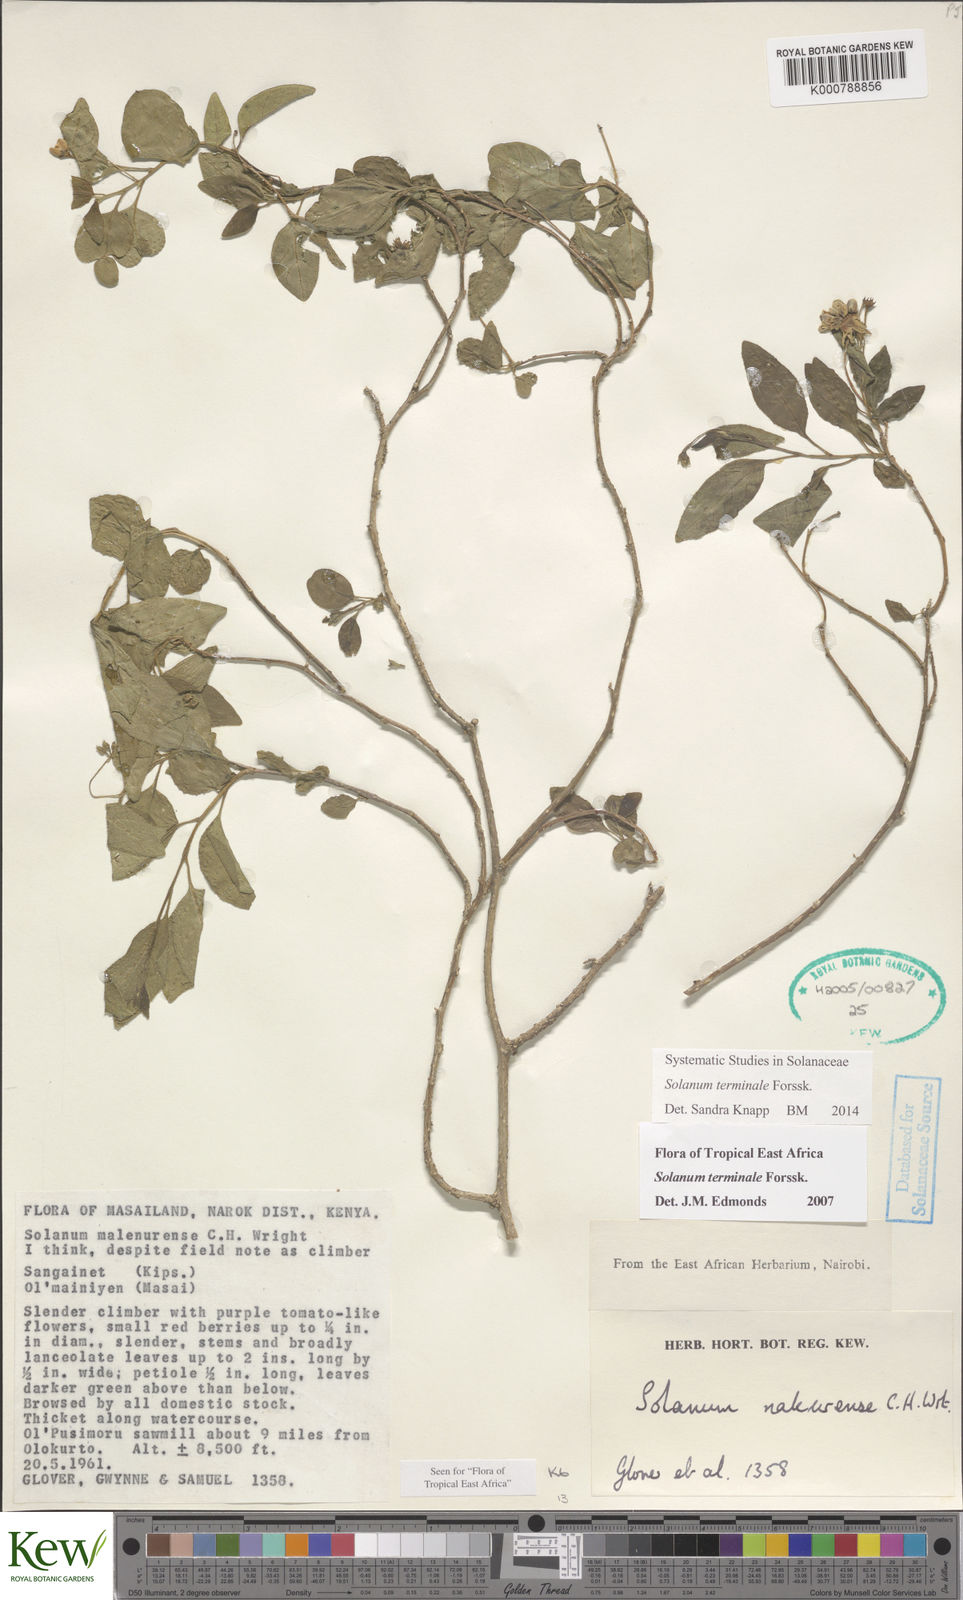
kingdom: Plantae
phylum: Tracheophyta
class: Magnoliopsida
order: Solanales
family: Solanaceae
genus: Solanum
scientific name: Solanum terminale
